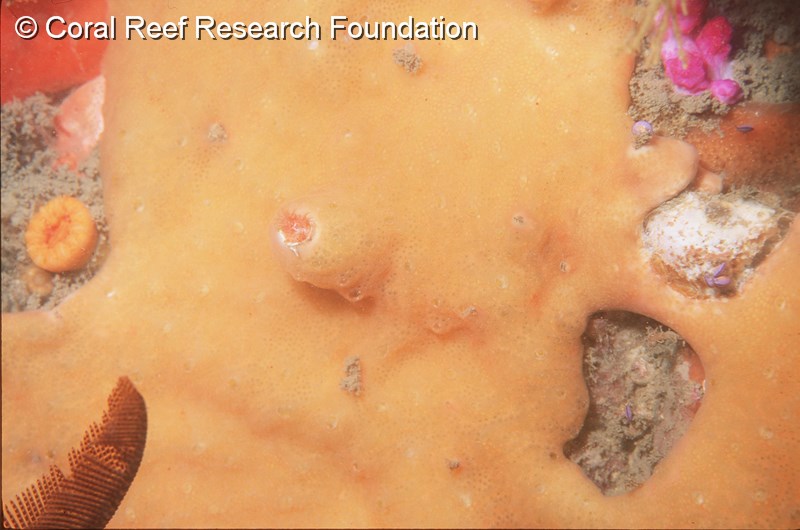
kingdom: Animalia
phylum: Chordata
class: Ascidiacea
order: Aplousobranchia
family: Didemnidae
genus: Leptoclinides
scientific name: Leptoclinides
